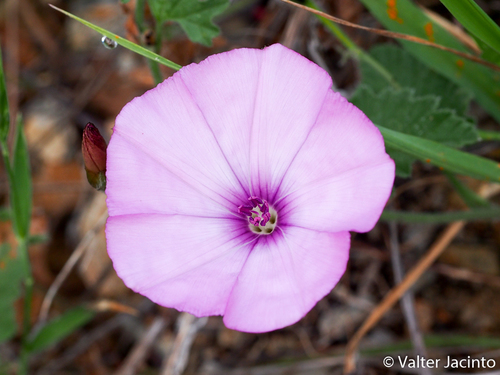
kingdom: Plantae
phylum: Tracheophyta
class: Magnoliopsida
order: Solanales
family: Convolvulaceae
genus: Convolvulus
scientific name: Convolvulus althaeoides
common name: Mallow bindweed
